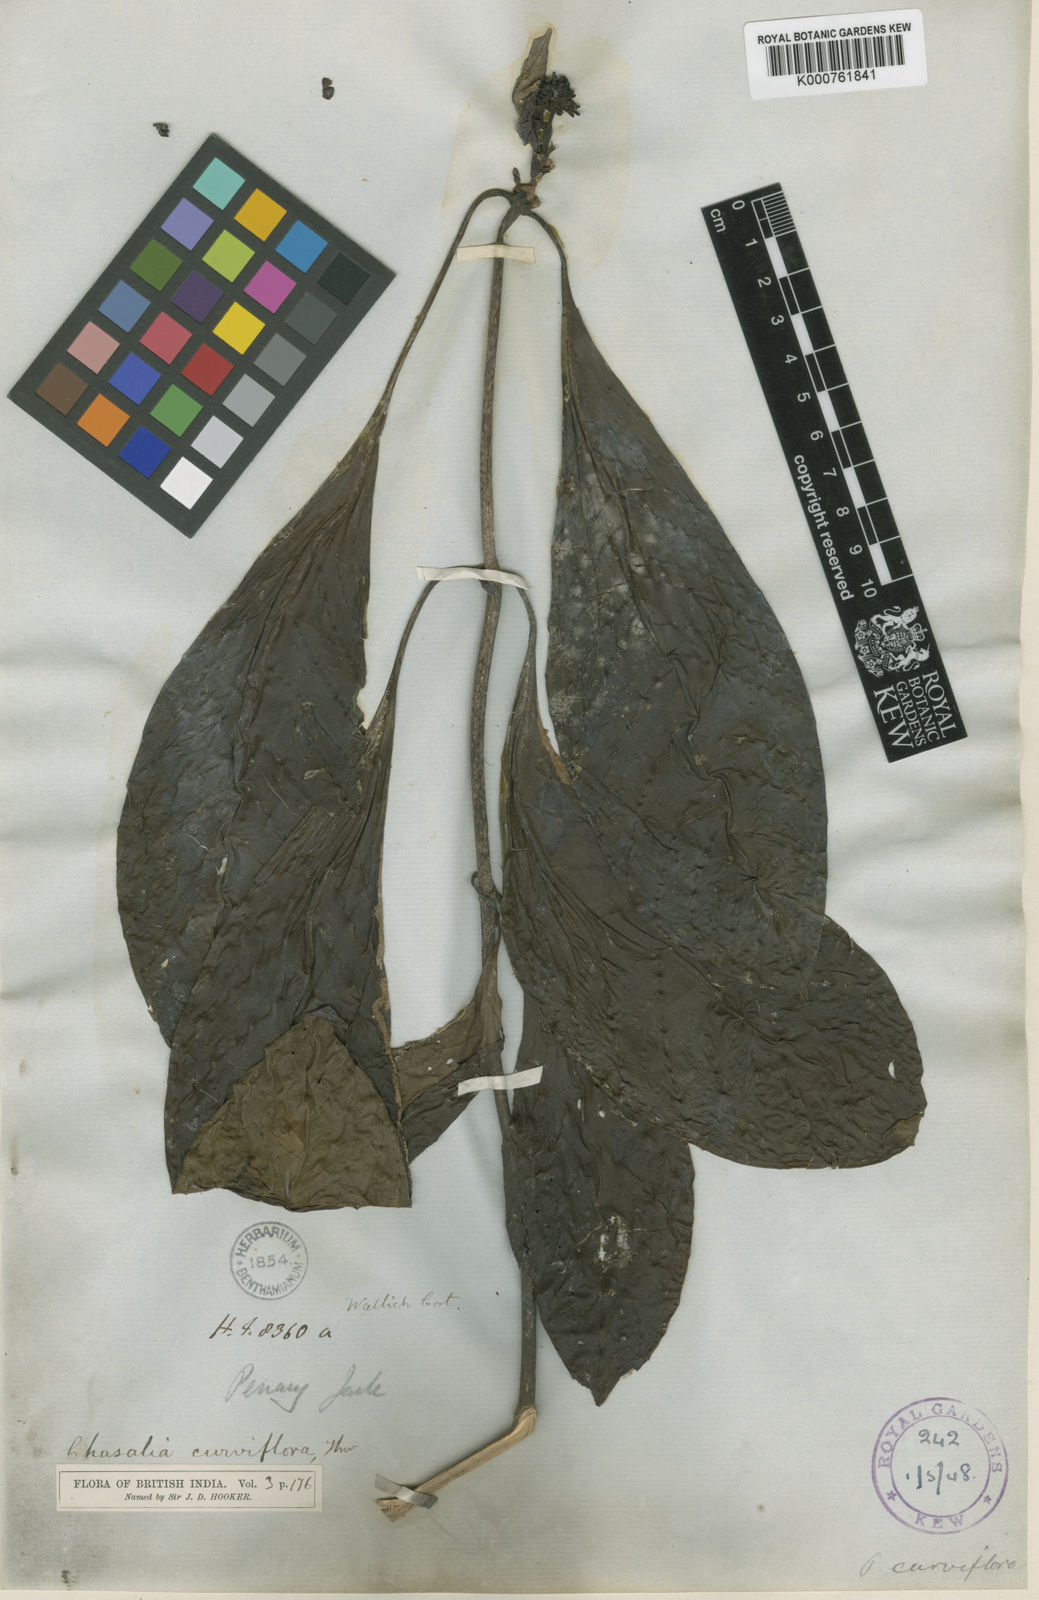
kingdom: Plantae
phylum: Tracheophyta
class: Magnoliopsida
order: Gentianales
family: Rubiaceae
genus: Chassalia
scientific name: Chassalia curviflora
